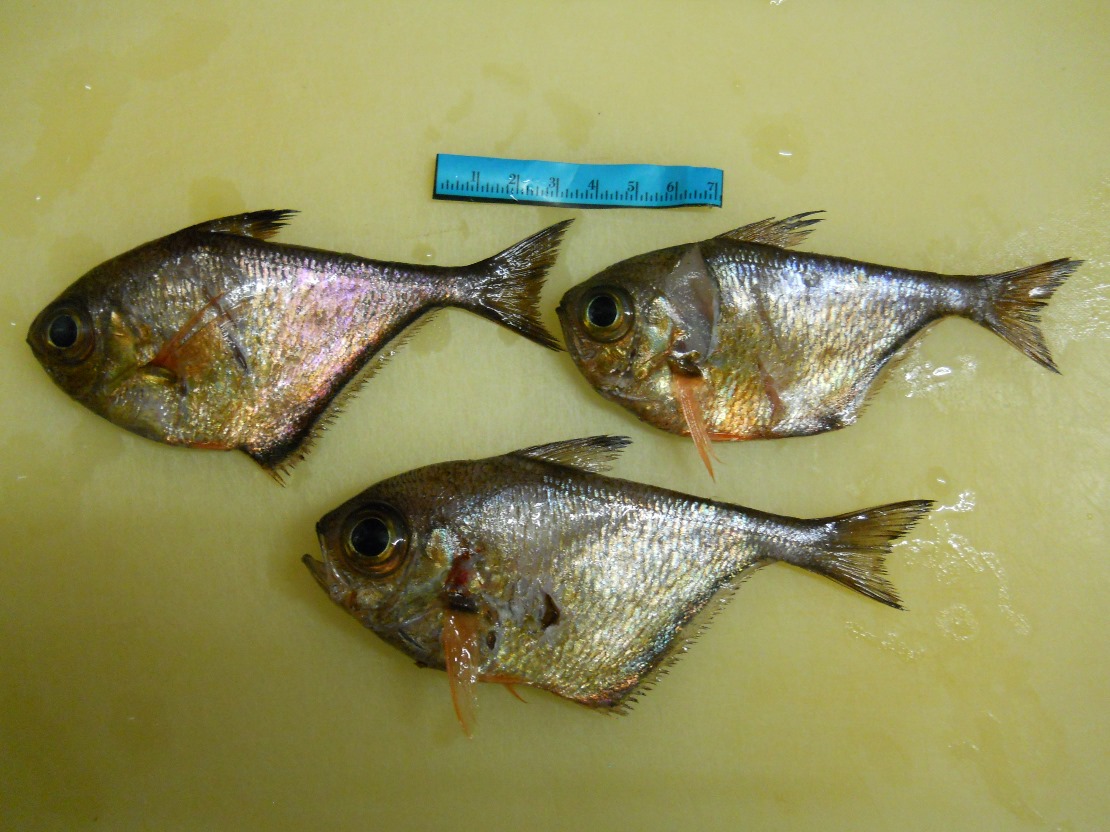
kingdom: Animalia
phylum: Chordata
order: Perciformes
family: Pempheridae
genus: Pempheris
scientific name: Pempheris connelli
